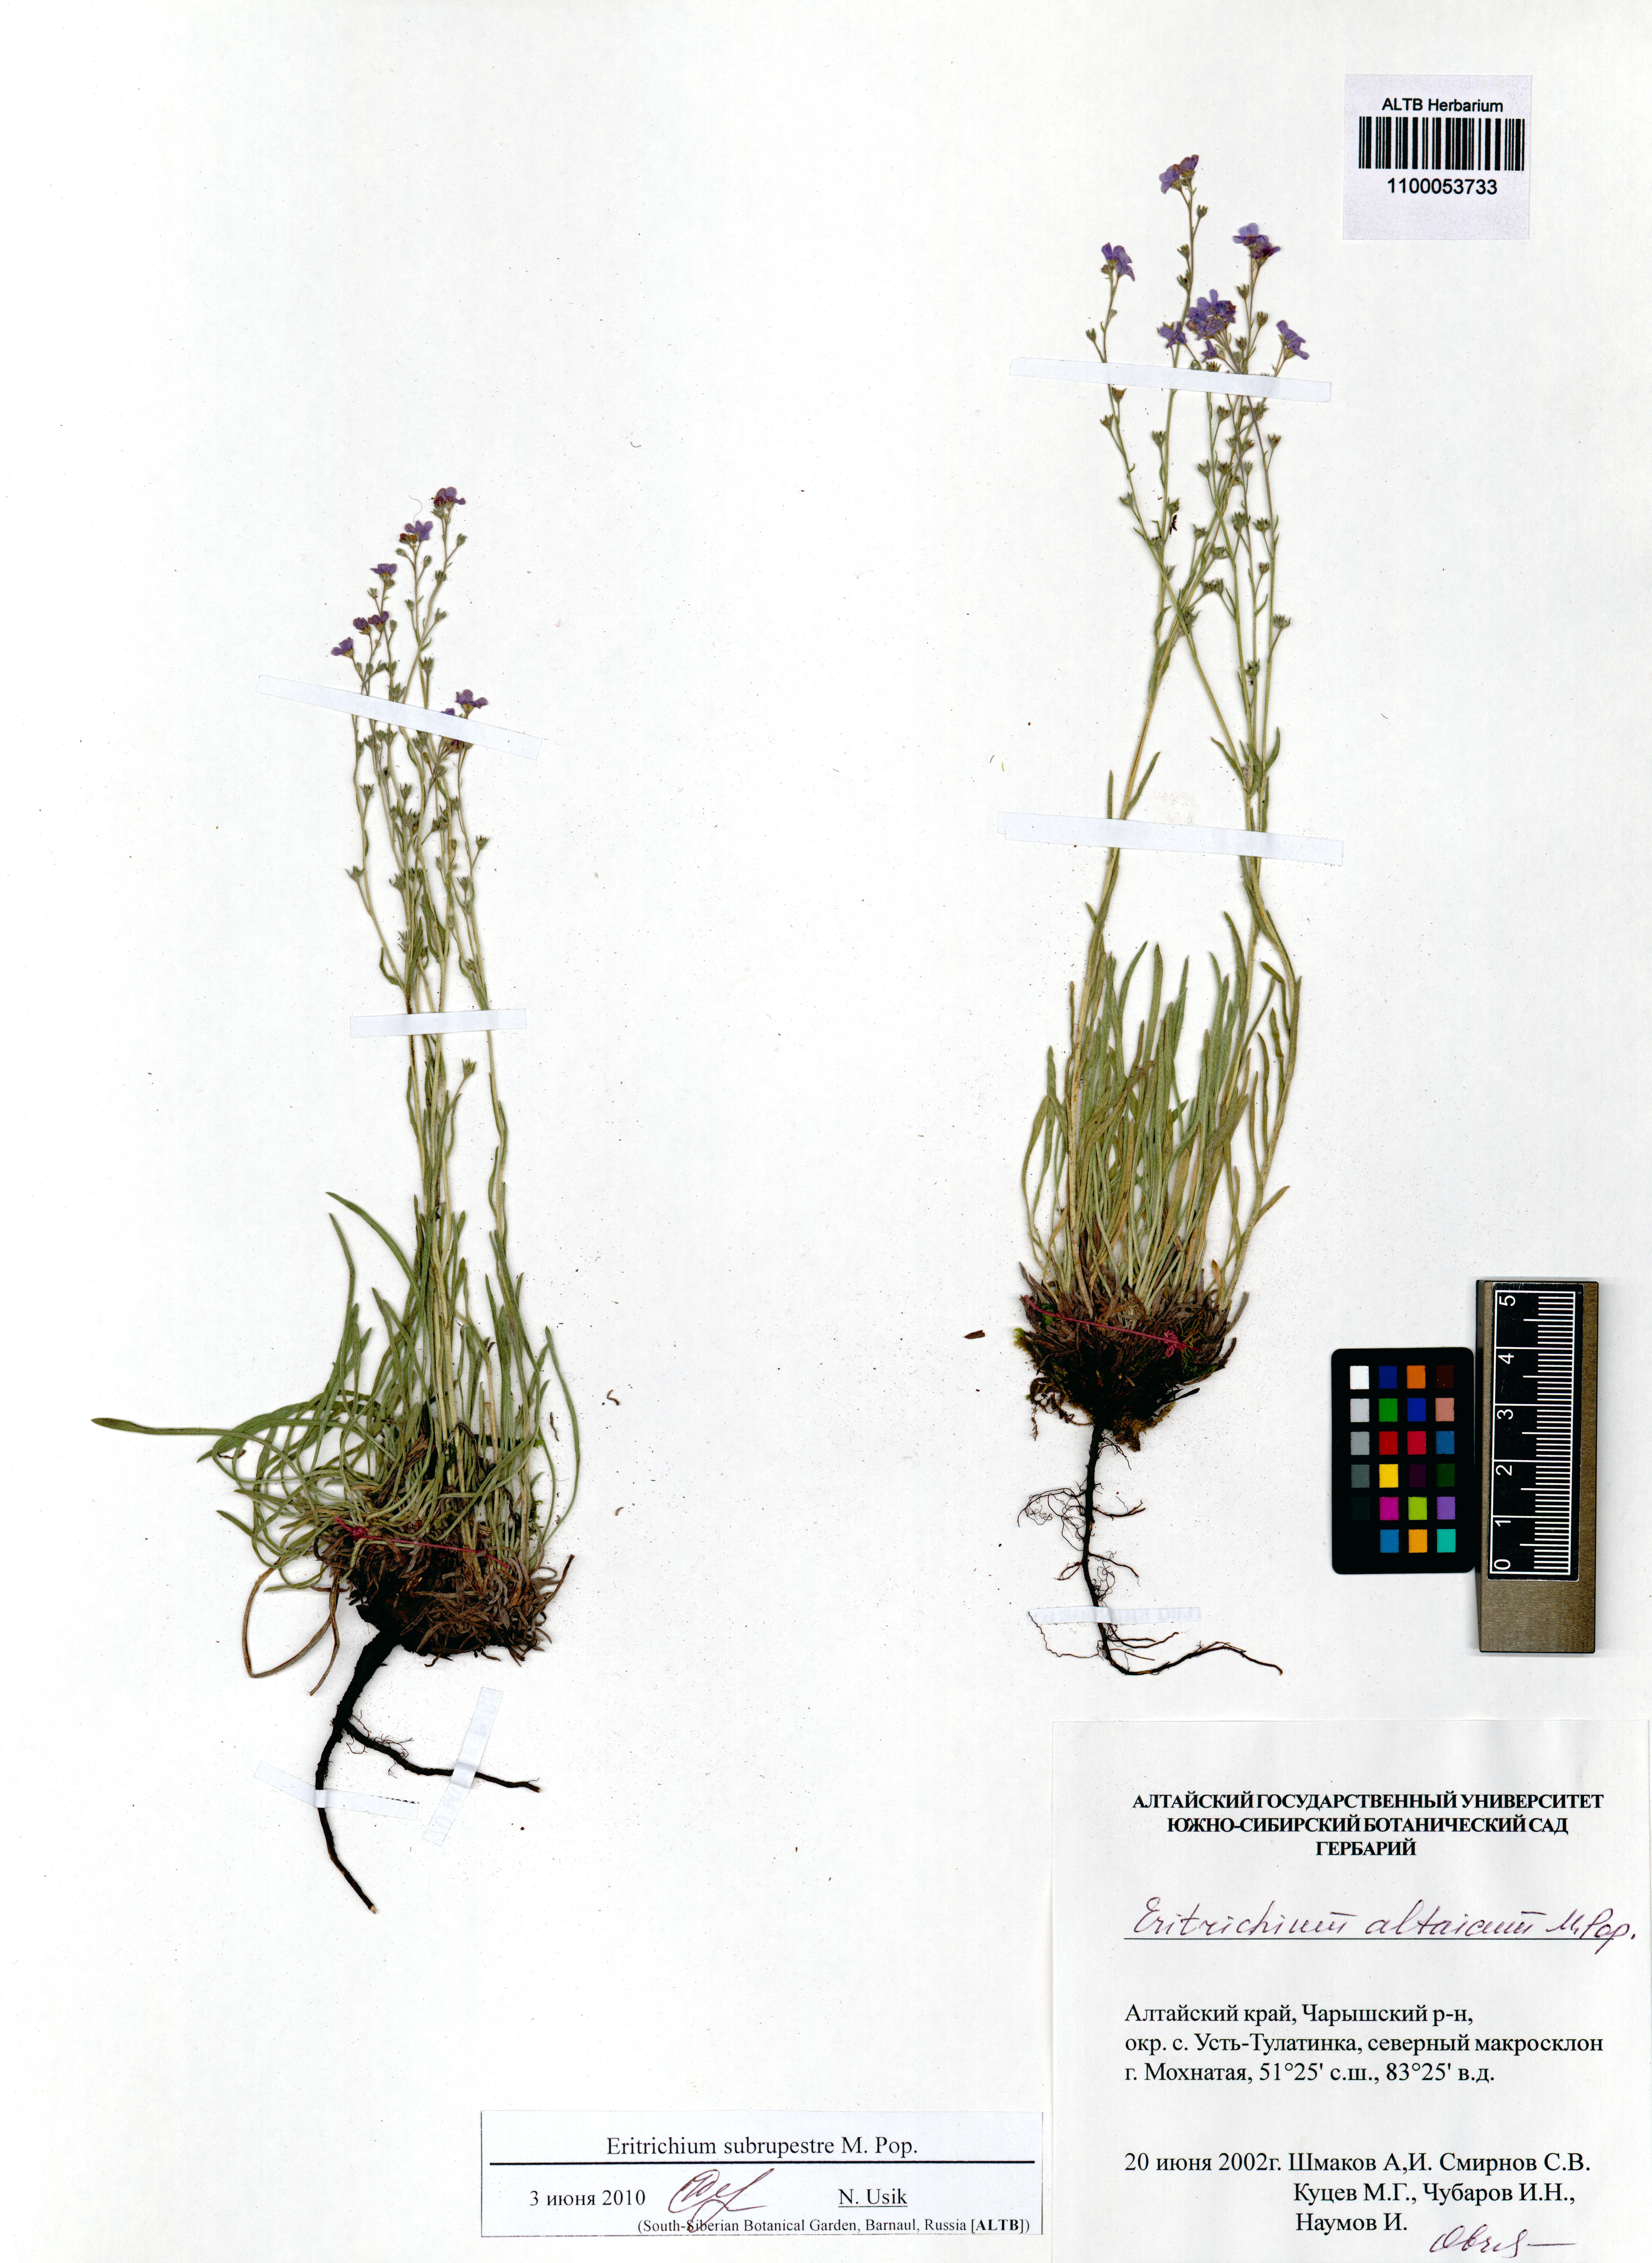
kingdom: Plantae
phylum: Tracheophyta
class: Magnoliopsida
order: Boraginales
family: Boraginaceae
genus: Eritrichium
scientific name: Eritrichium pauciflorum
